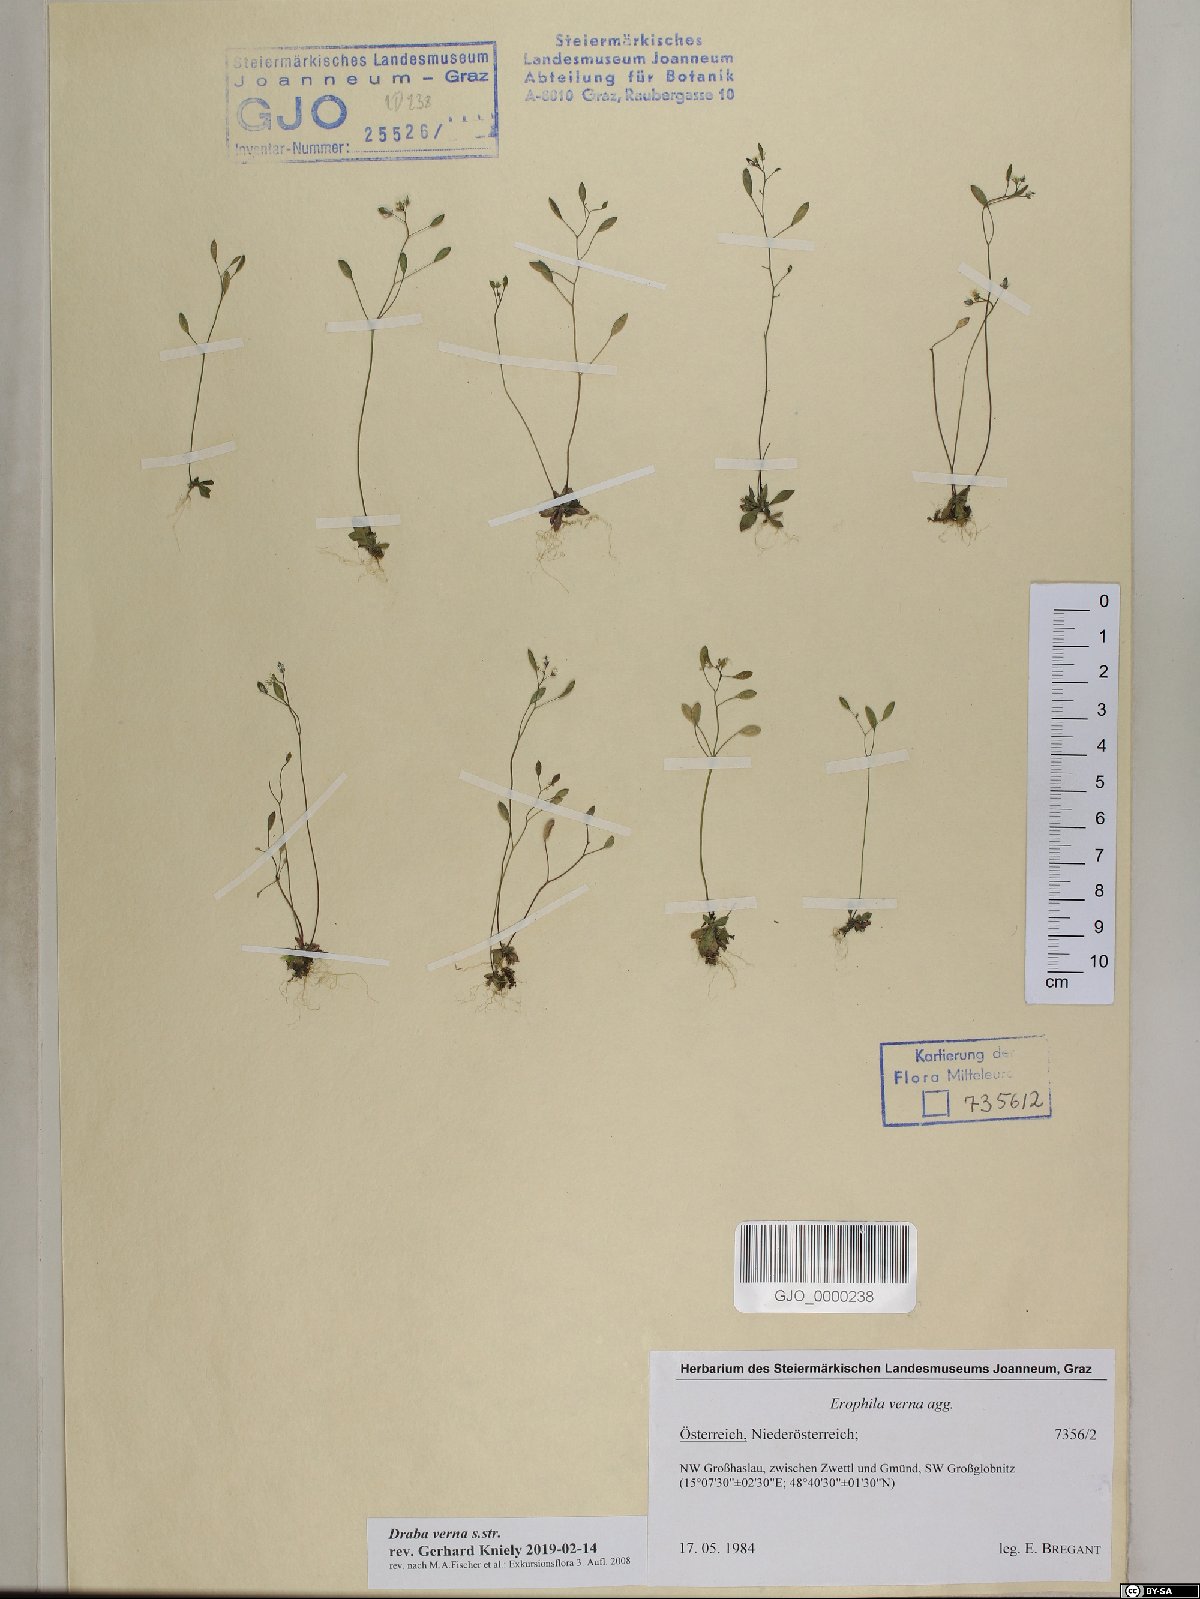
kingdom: Plantae
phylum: Tracheophyta
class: Magnoliopsida
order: Brassicales
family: Brassicaceae
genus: Draba
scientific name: Draba verna
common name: Spring draba
